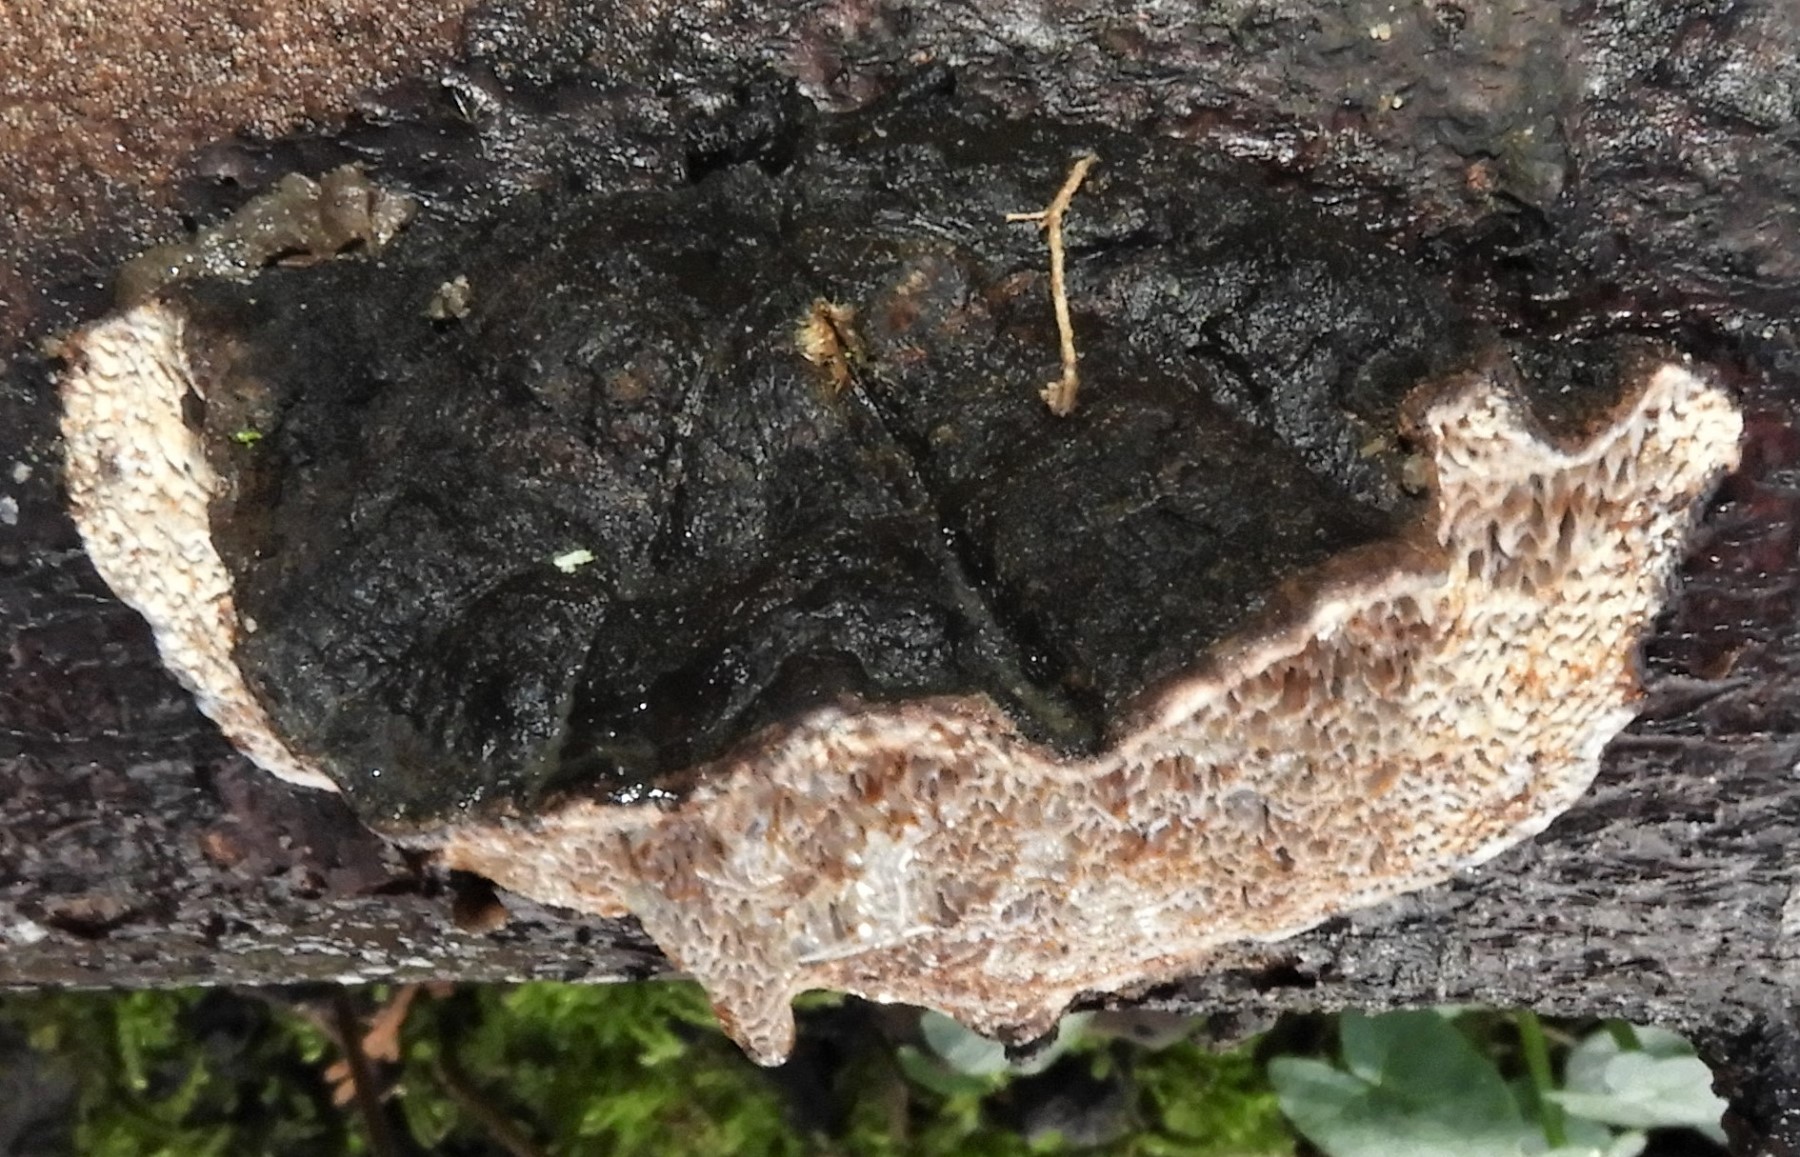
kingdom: Fungi
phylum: Basidiomycota
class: Agaricomycetes
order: Polyporales
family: Polyporaceae
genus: Podofomes
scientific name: Podofomes mollis
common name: blød begporesvamp
